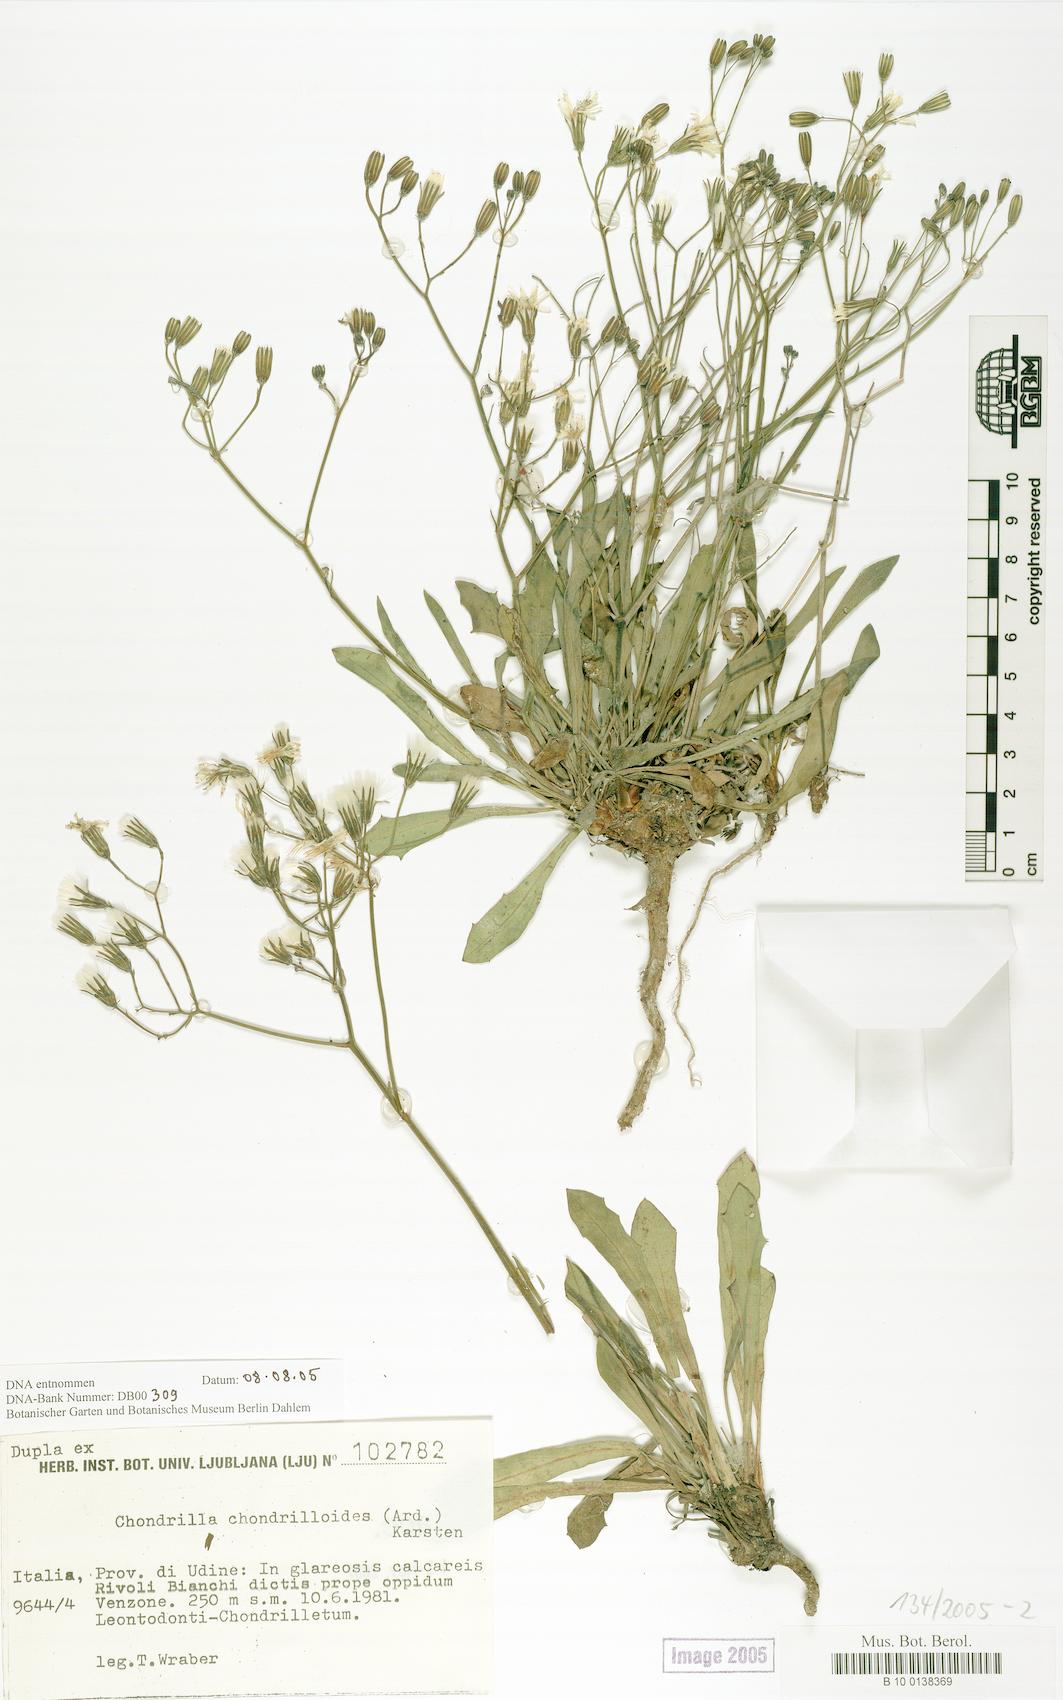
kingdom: Plantae
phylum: Tracheophyta
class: Magnoliopsida
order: Asterales
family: Asteraceae
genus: Chondrilla
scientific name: Chondrilla chondrilloides
